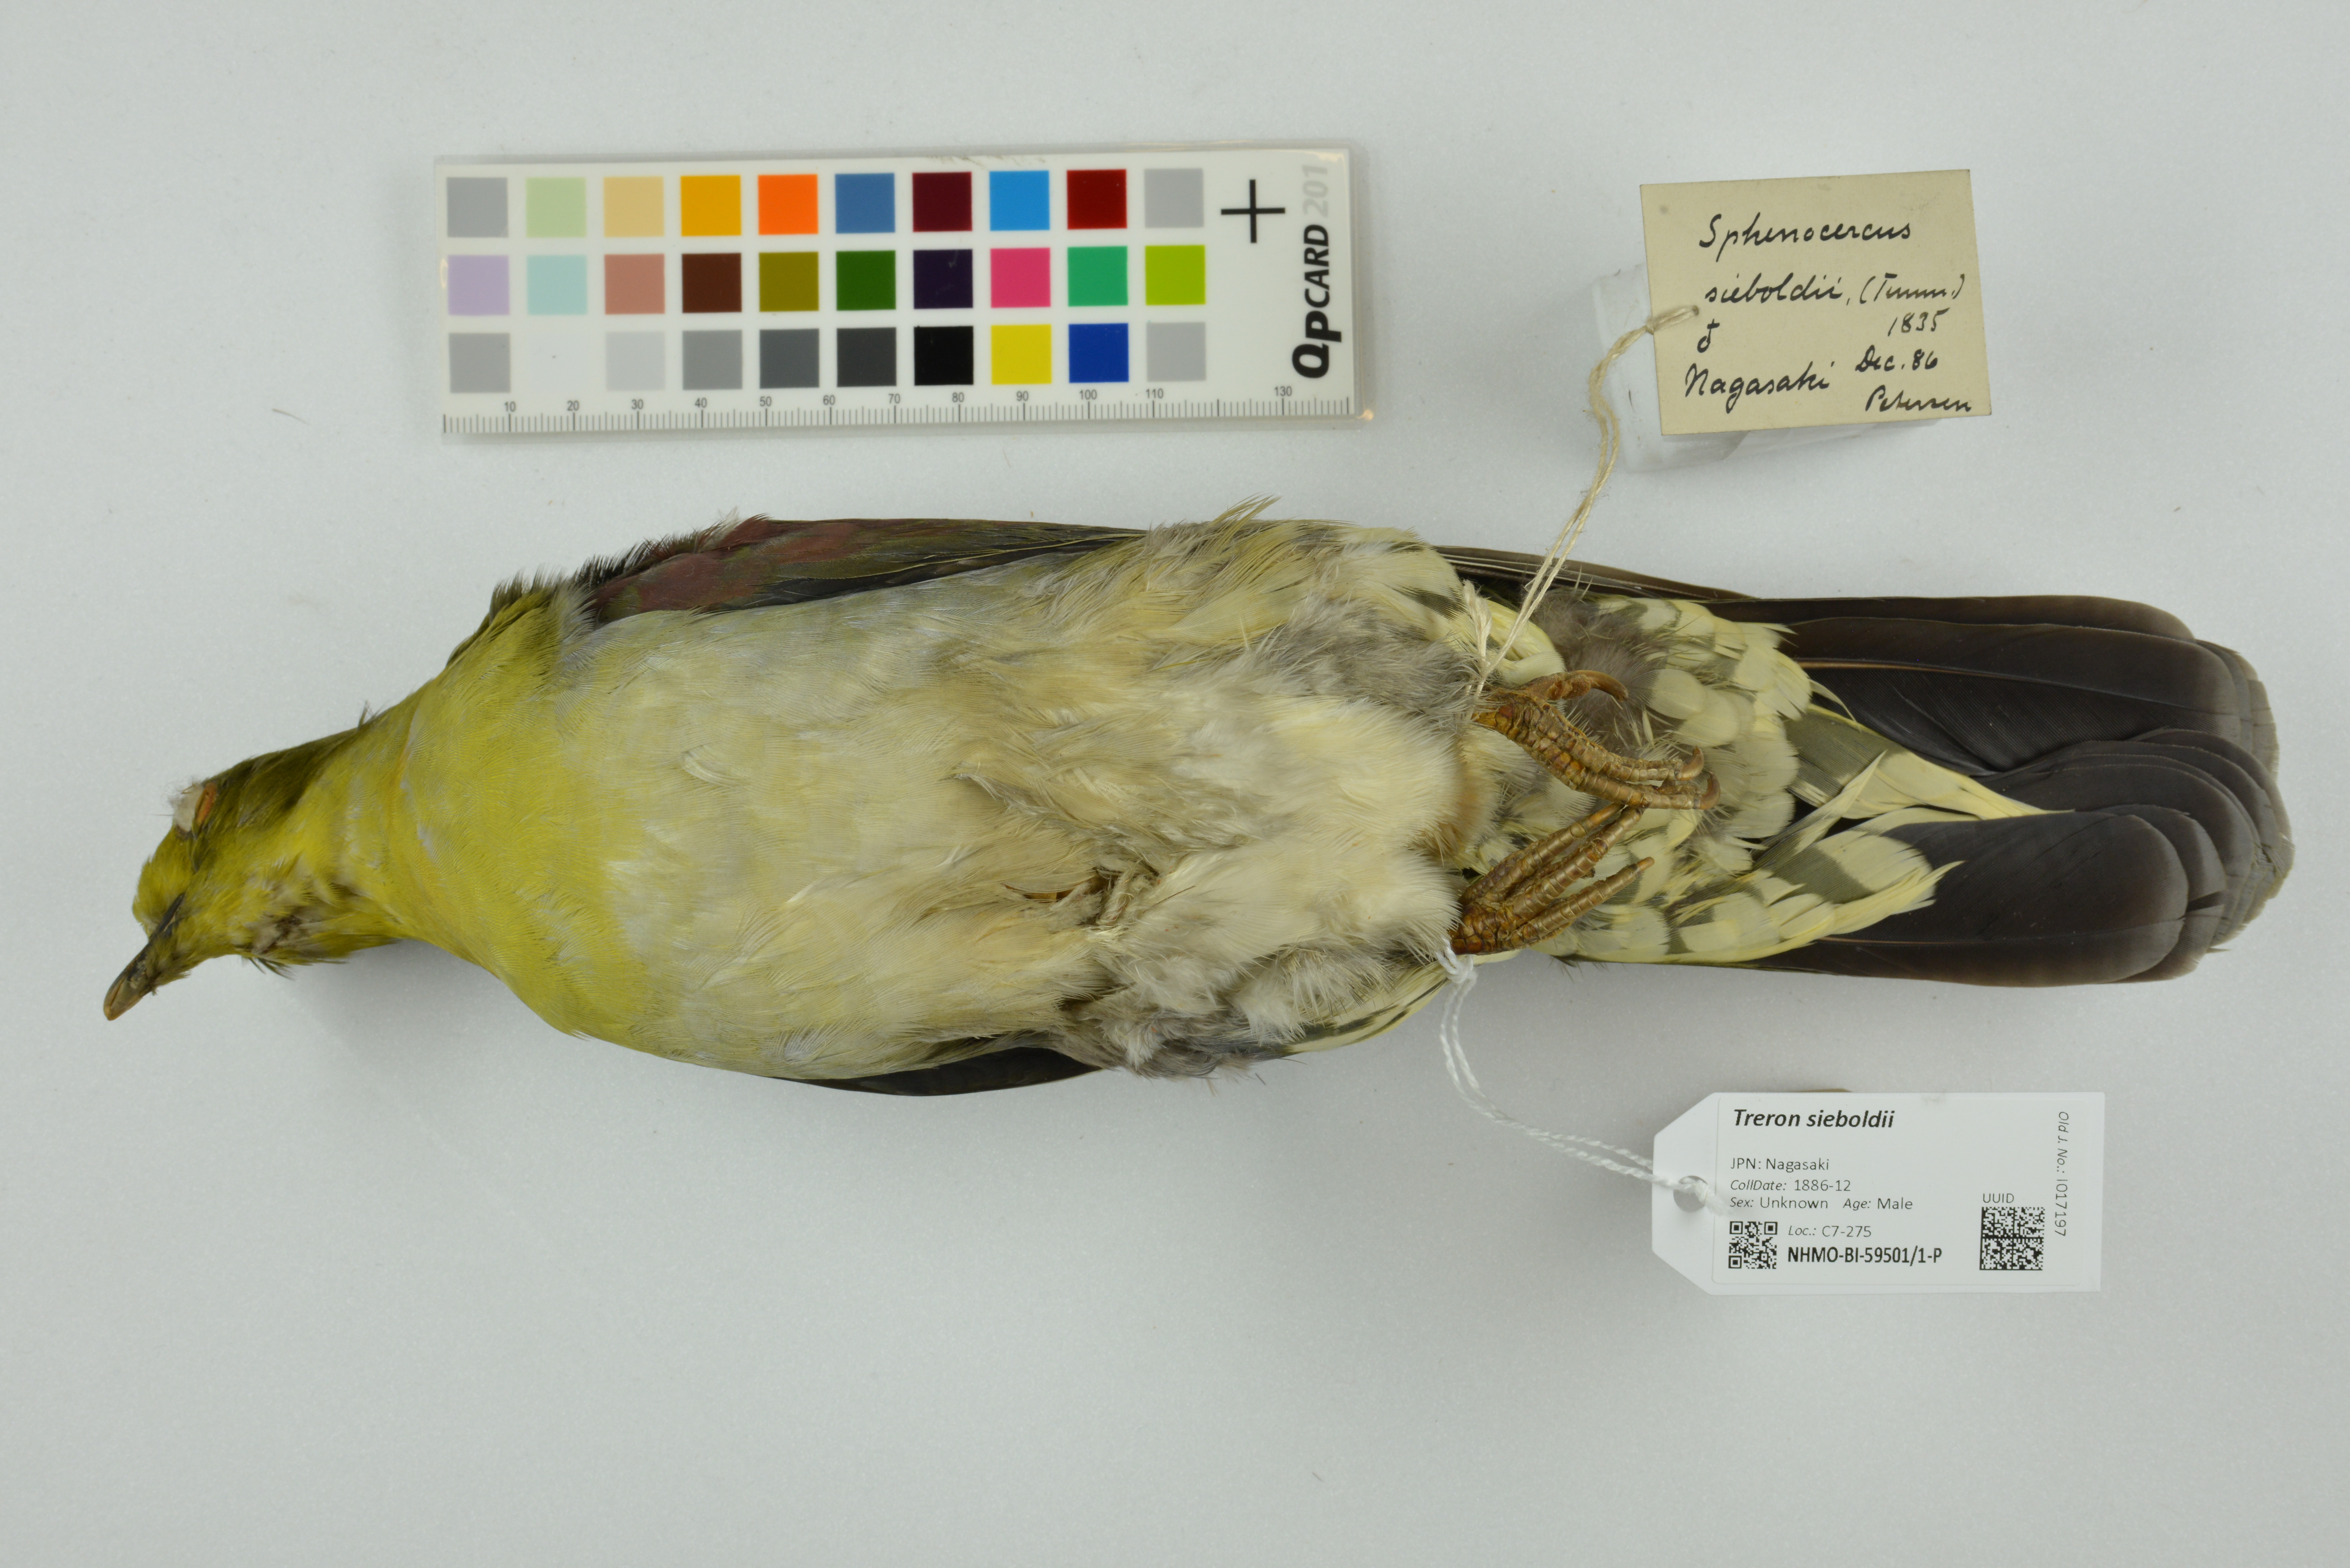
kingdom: Animalia
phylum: Chordata
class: Aves
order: Columbiformes
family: Columbidae
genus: Treron
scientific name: Treron sieboldii
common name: White-bellied green pigeon
